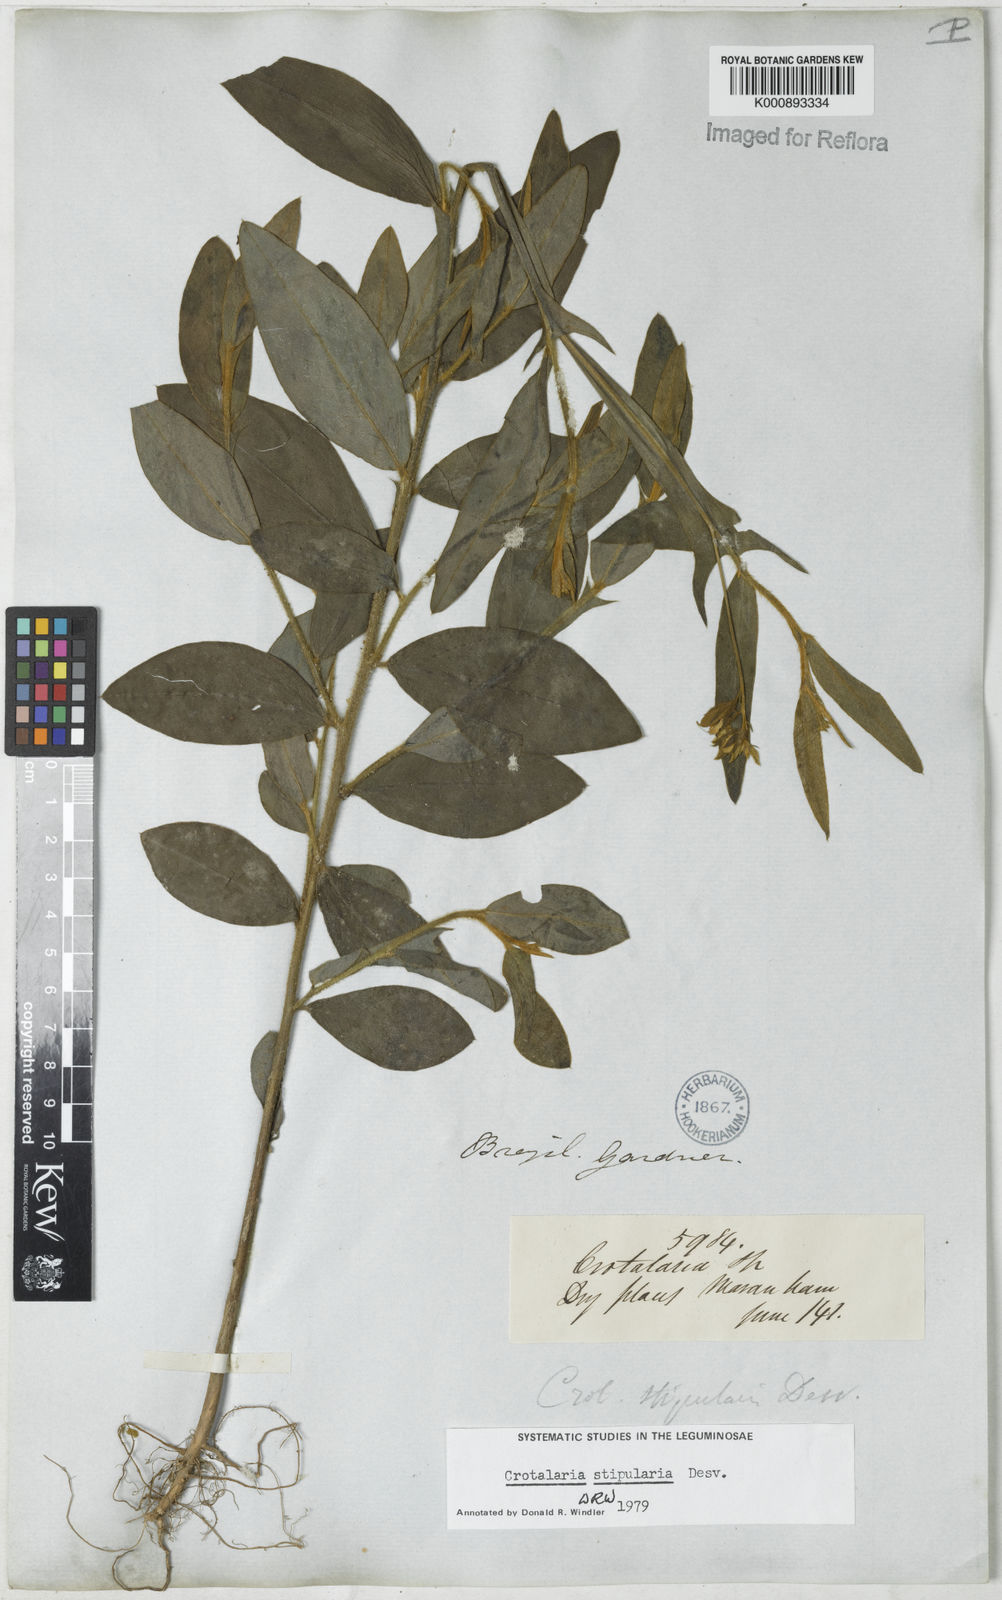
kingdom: Plantae
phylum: Tracheophyta
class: Magnoliopsida
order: Fabales
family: Fabaceae
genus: Crotalaria
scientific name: Crotalaria stipularia
